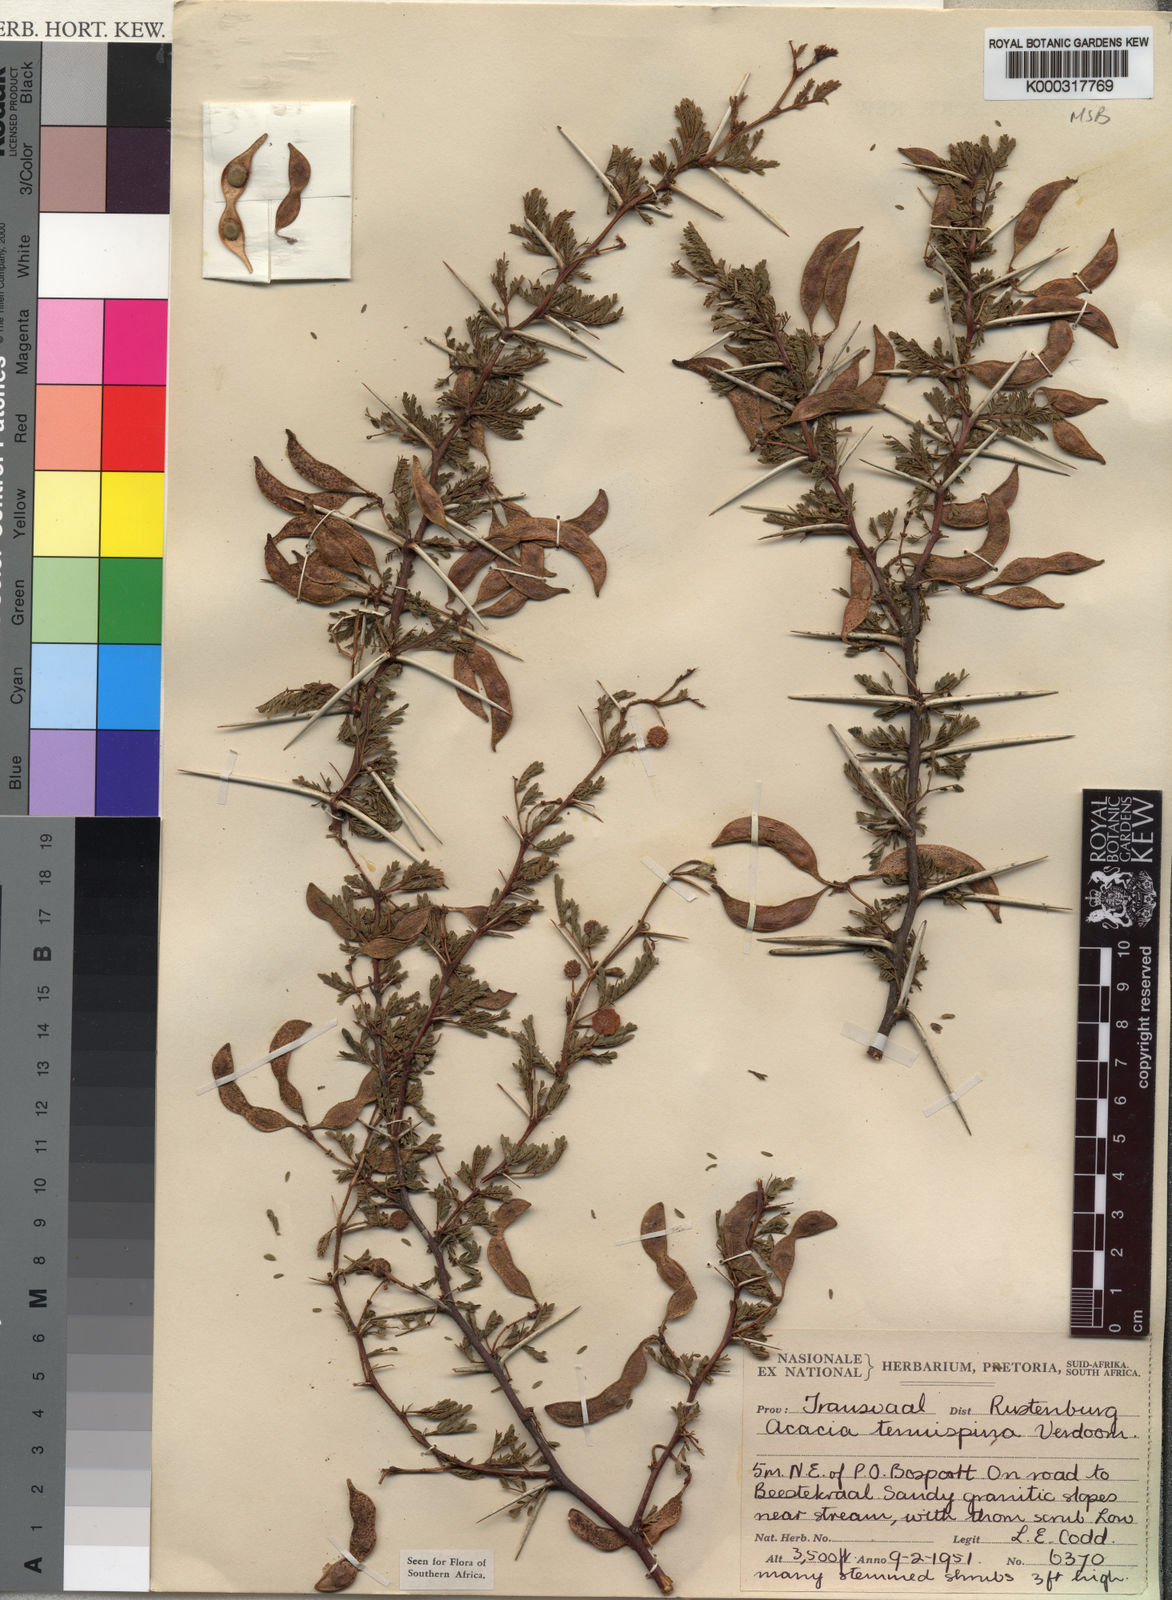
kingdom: Plantae
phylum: Tracheophyta
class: Magnoliopsida
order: Fabales
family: Fabaceae
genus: Vachellia
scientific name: Vachellia tenuispina
